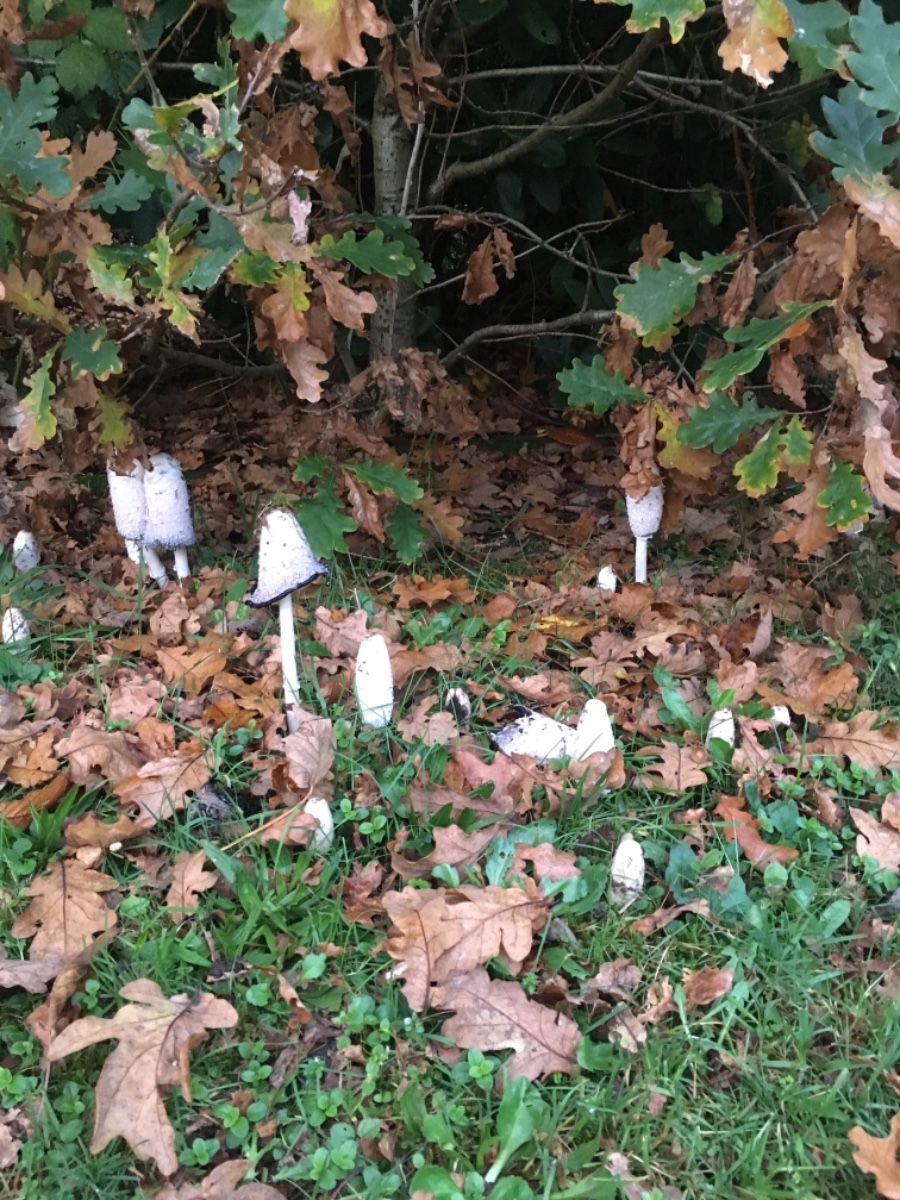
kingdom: Fungi
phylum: Basidiomycota
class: Agaricomycetes
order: Agaricales
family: Agaricaceae
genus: Coprinus
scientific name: Coprinus comatus
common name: stor parykhat
